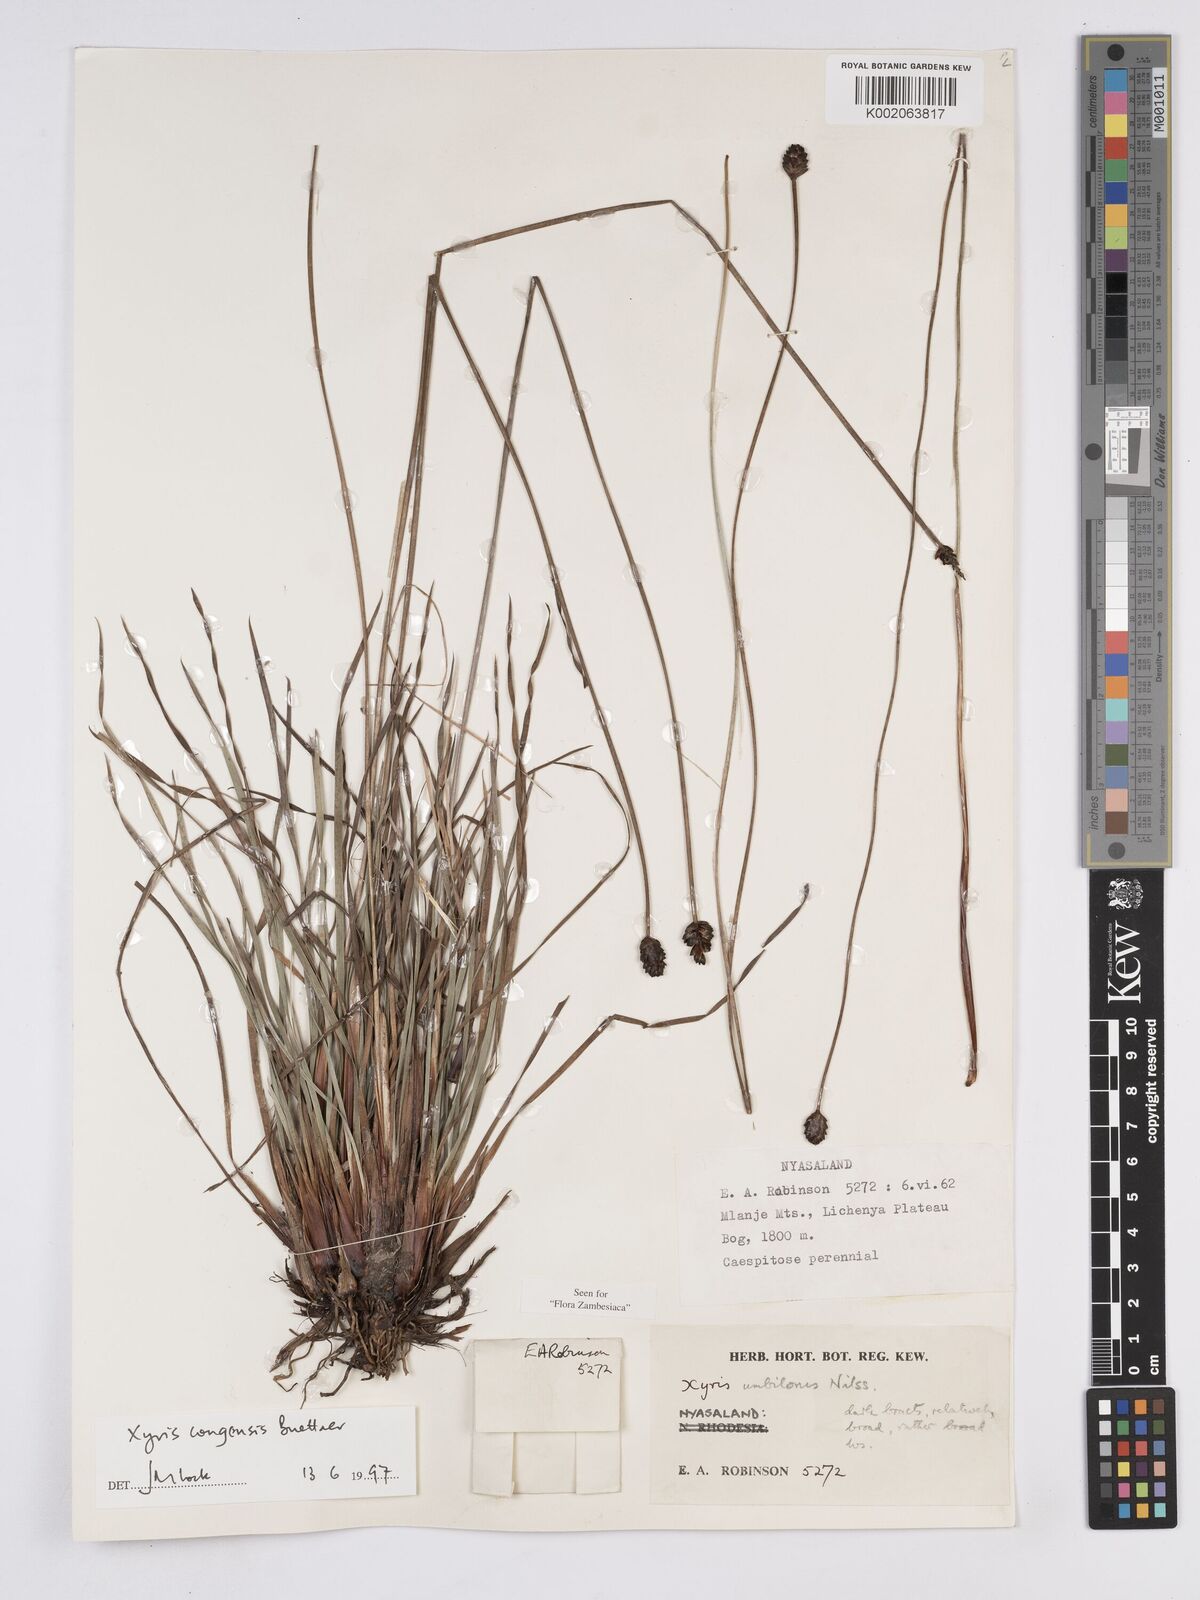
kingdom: Plantae
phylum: Tracheophyta
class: Liliopsida
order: Poales
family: Xyridaceae
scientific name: Xyridaceae
